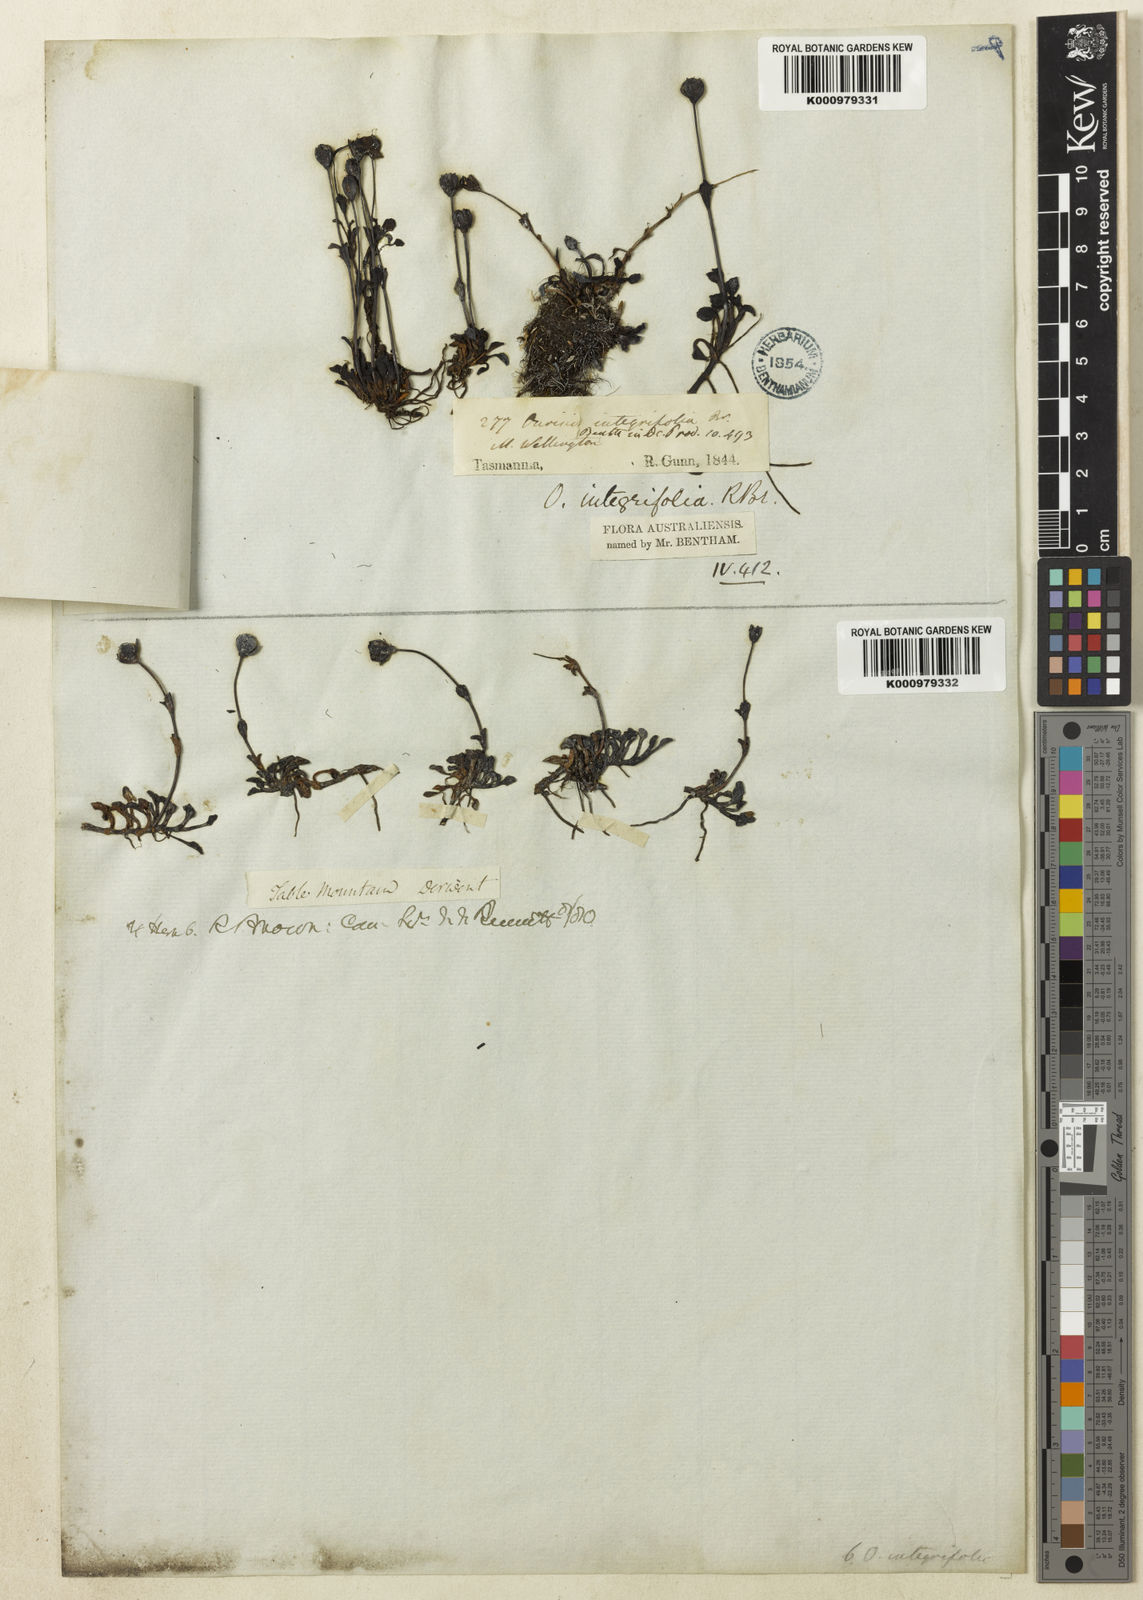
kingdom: Plantae
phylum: Tracheophyta
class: Magnoliopsida
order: Lamiales
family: Plantaginaceae
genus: Ourisia
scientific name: Ourisia integrifolia
